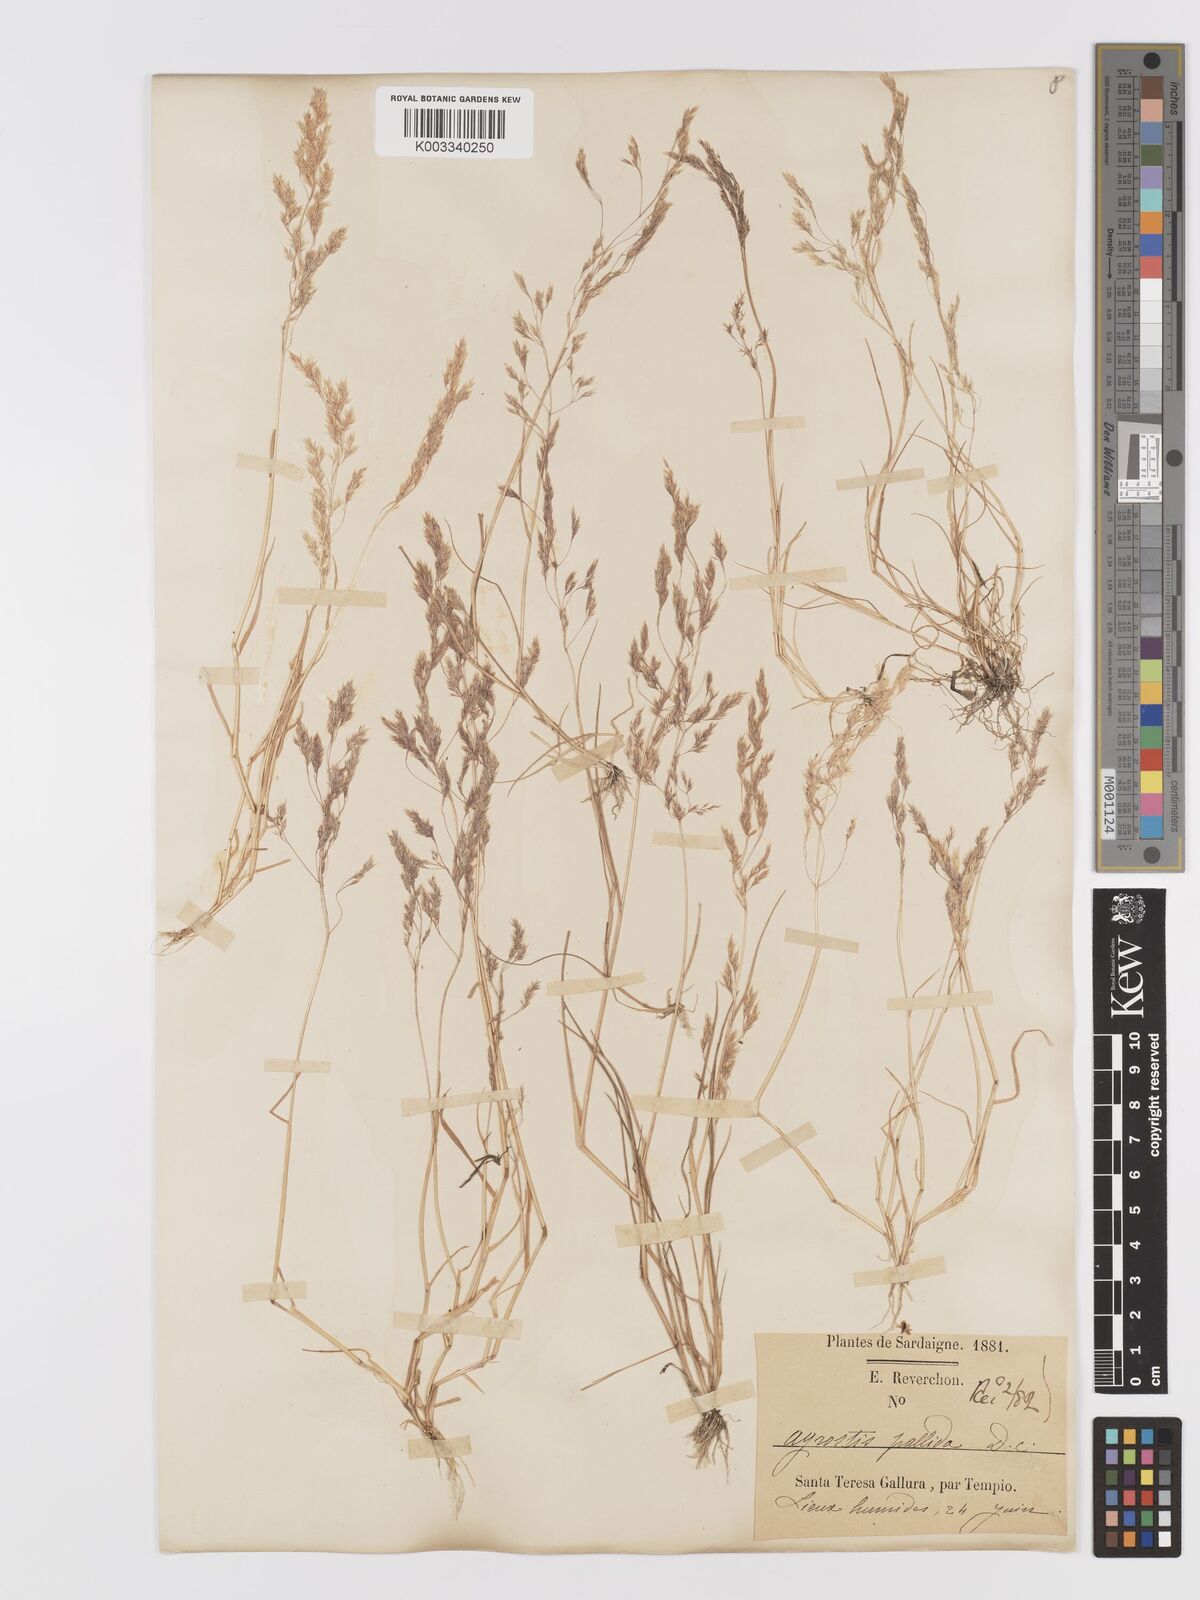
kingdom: Plantae
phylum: Tracheophyta
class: Liliopsida
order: Poales
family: Poaceae
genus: Agrostis
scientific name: Agrostis pourretii
